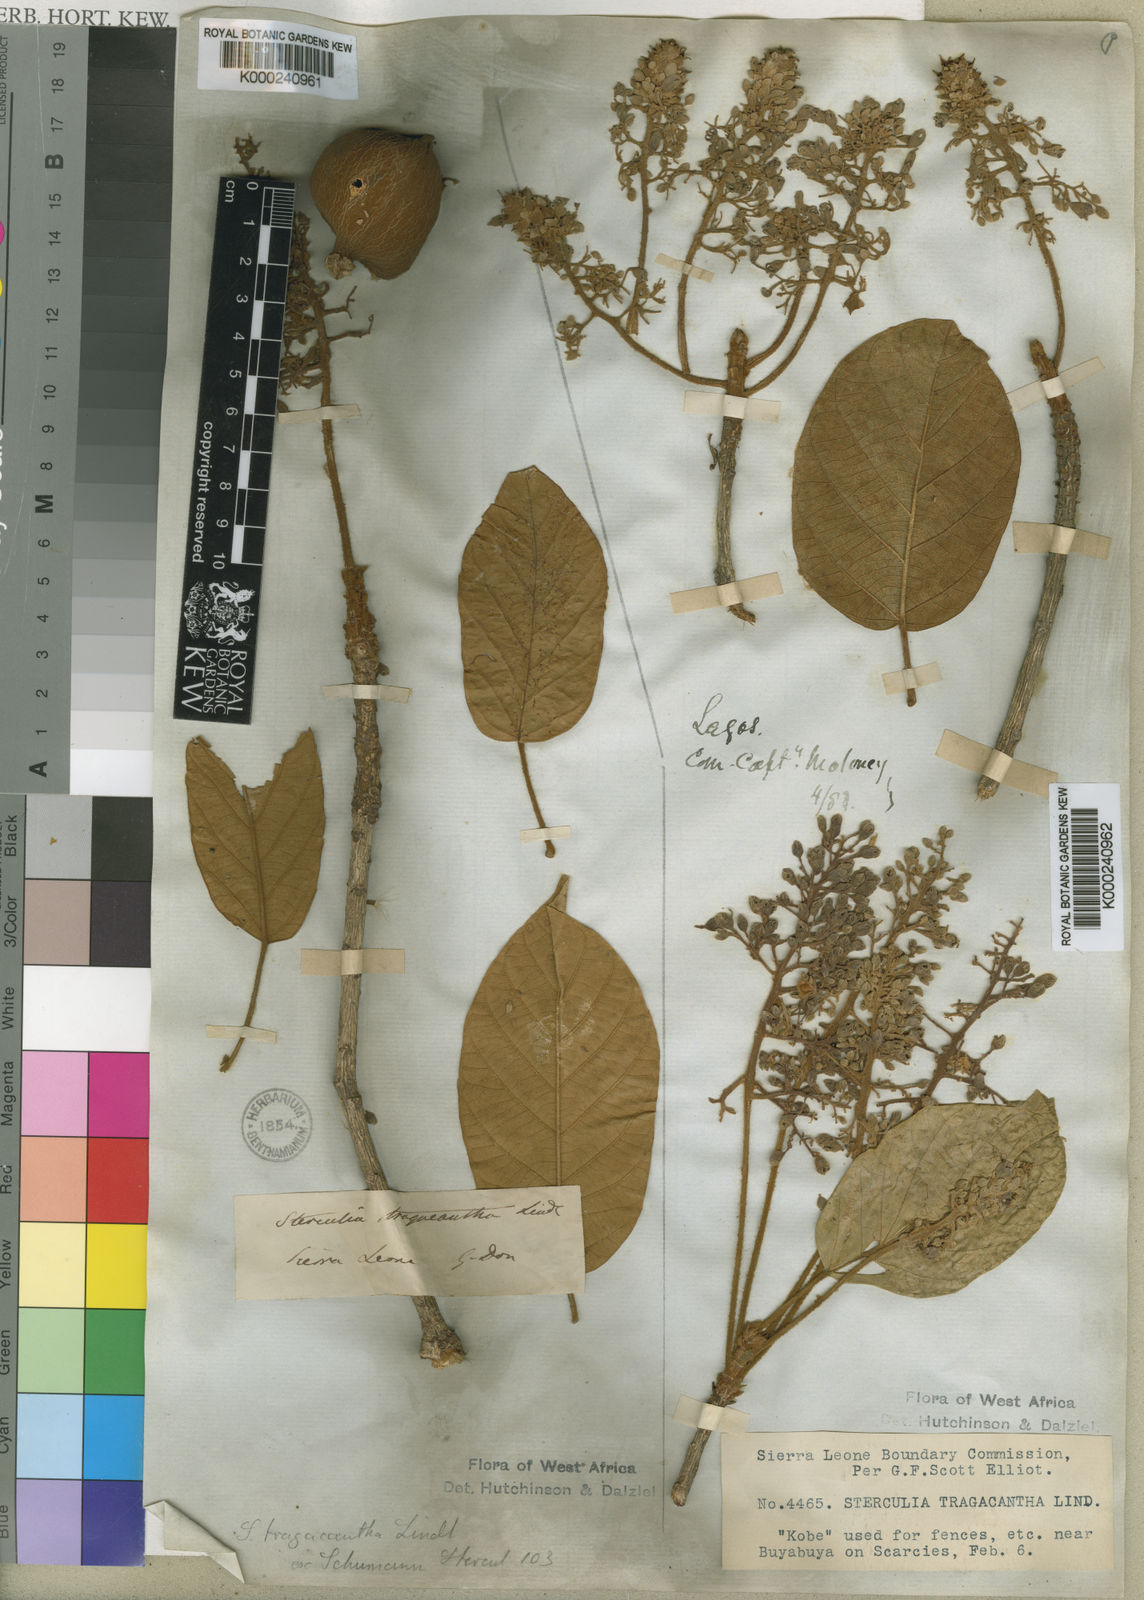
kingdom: Plantae
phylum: Tracheophyta
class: Magnoliopsida
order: Malvales
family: Malvaceae
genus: Sterculia
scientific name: Sterculia tragacantha
